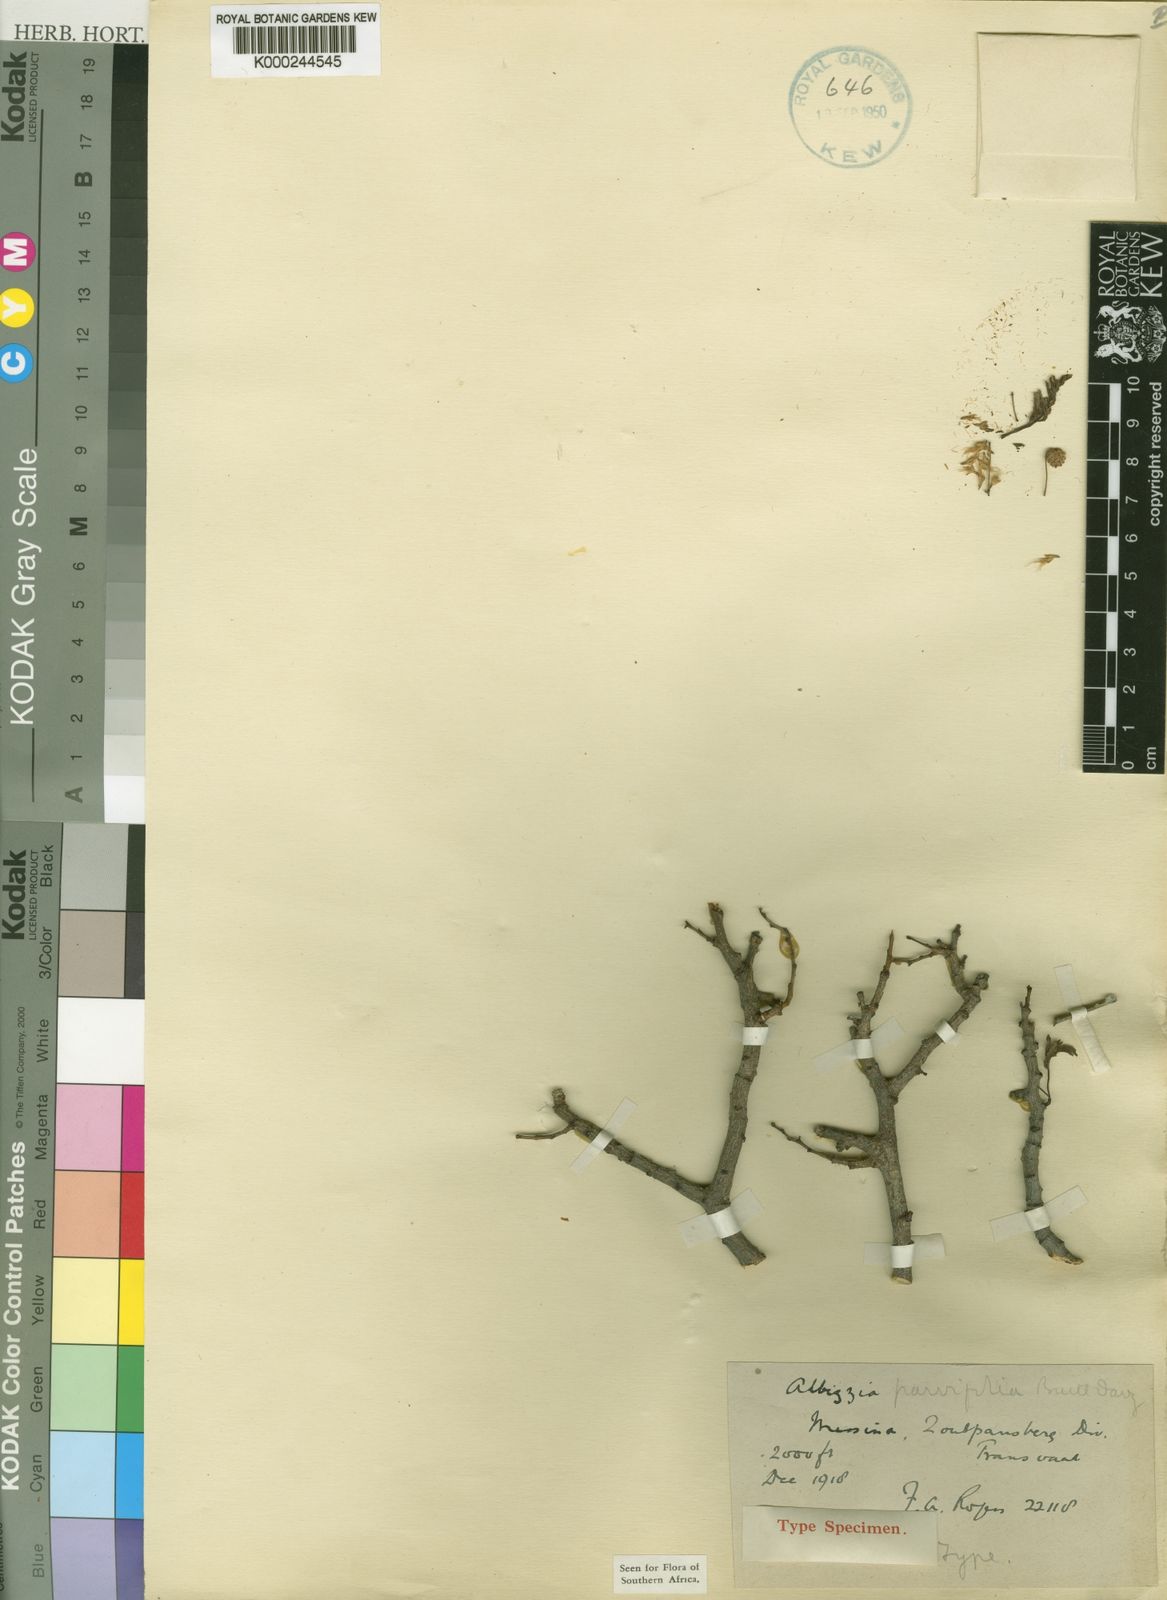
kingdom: Plantae
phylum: Tracheophyta
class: Magnoliopsida
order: Fabales
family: Fabaceae
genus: Albizia
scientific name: Albizia brevifolia
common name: Rock false-thorn
